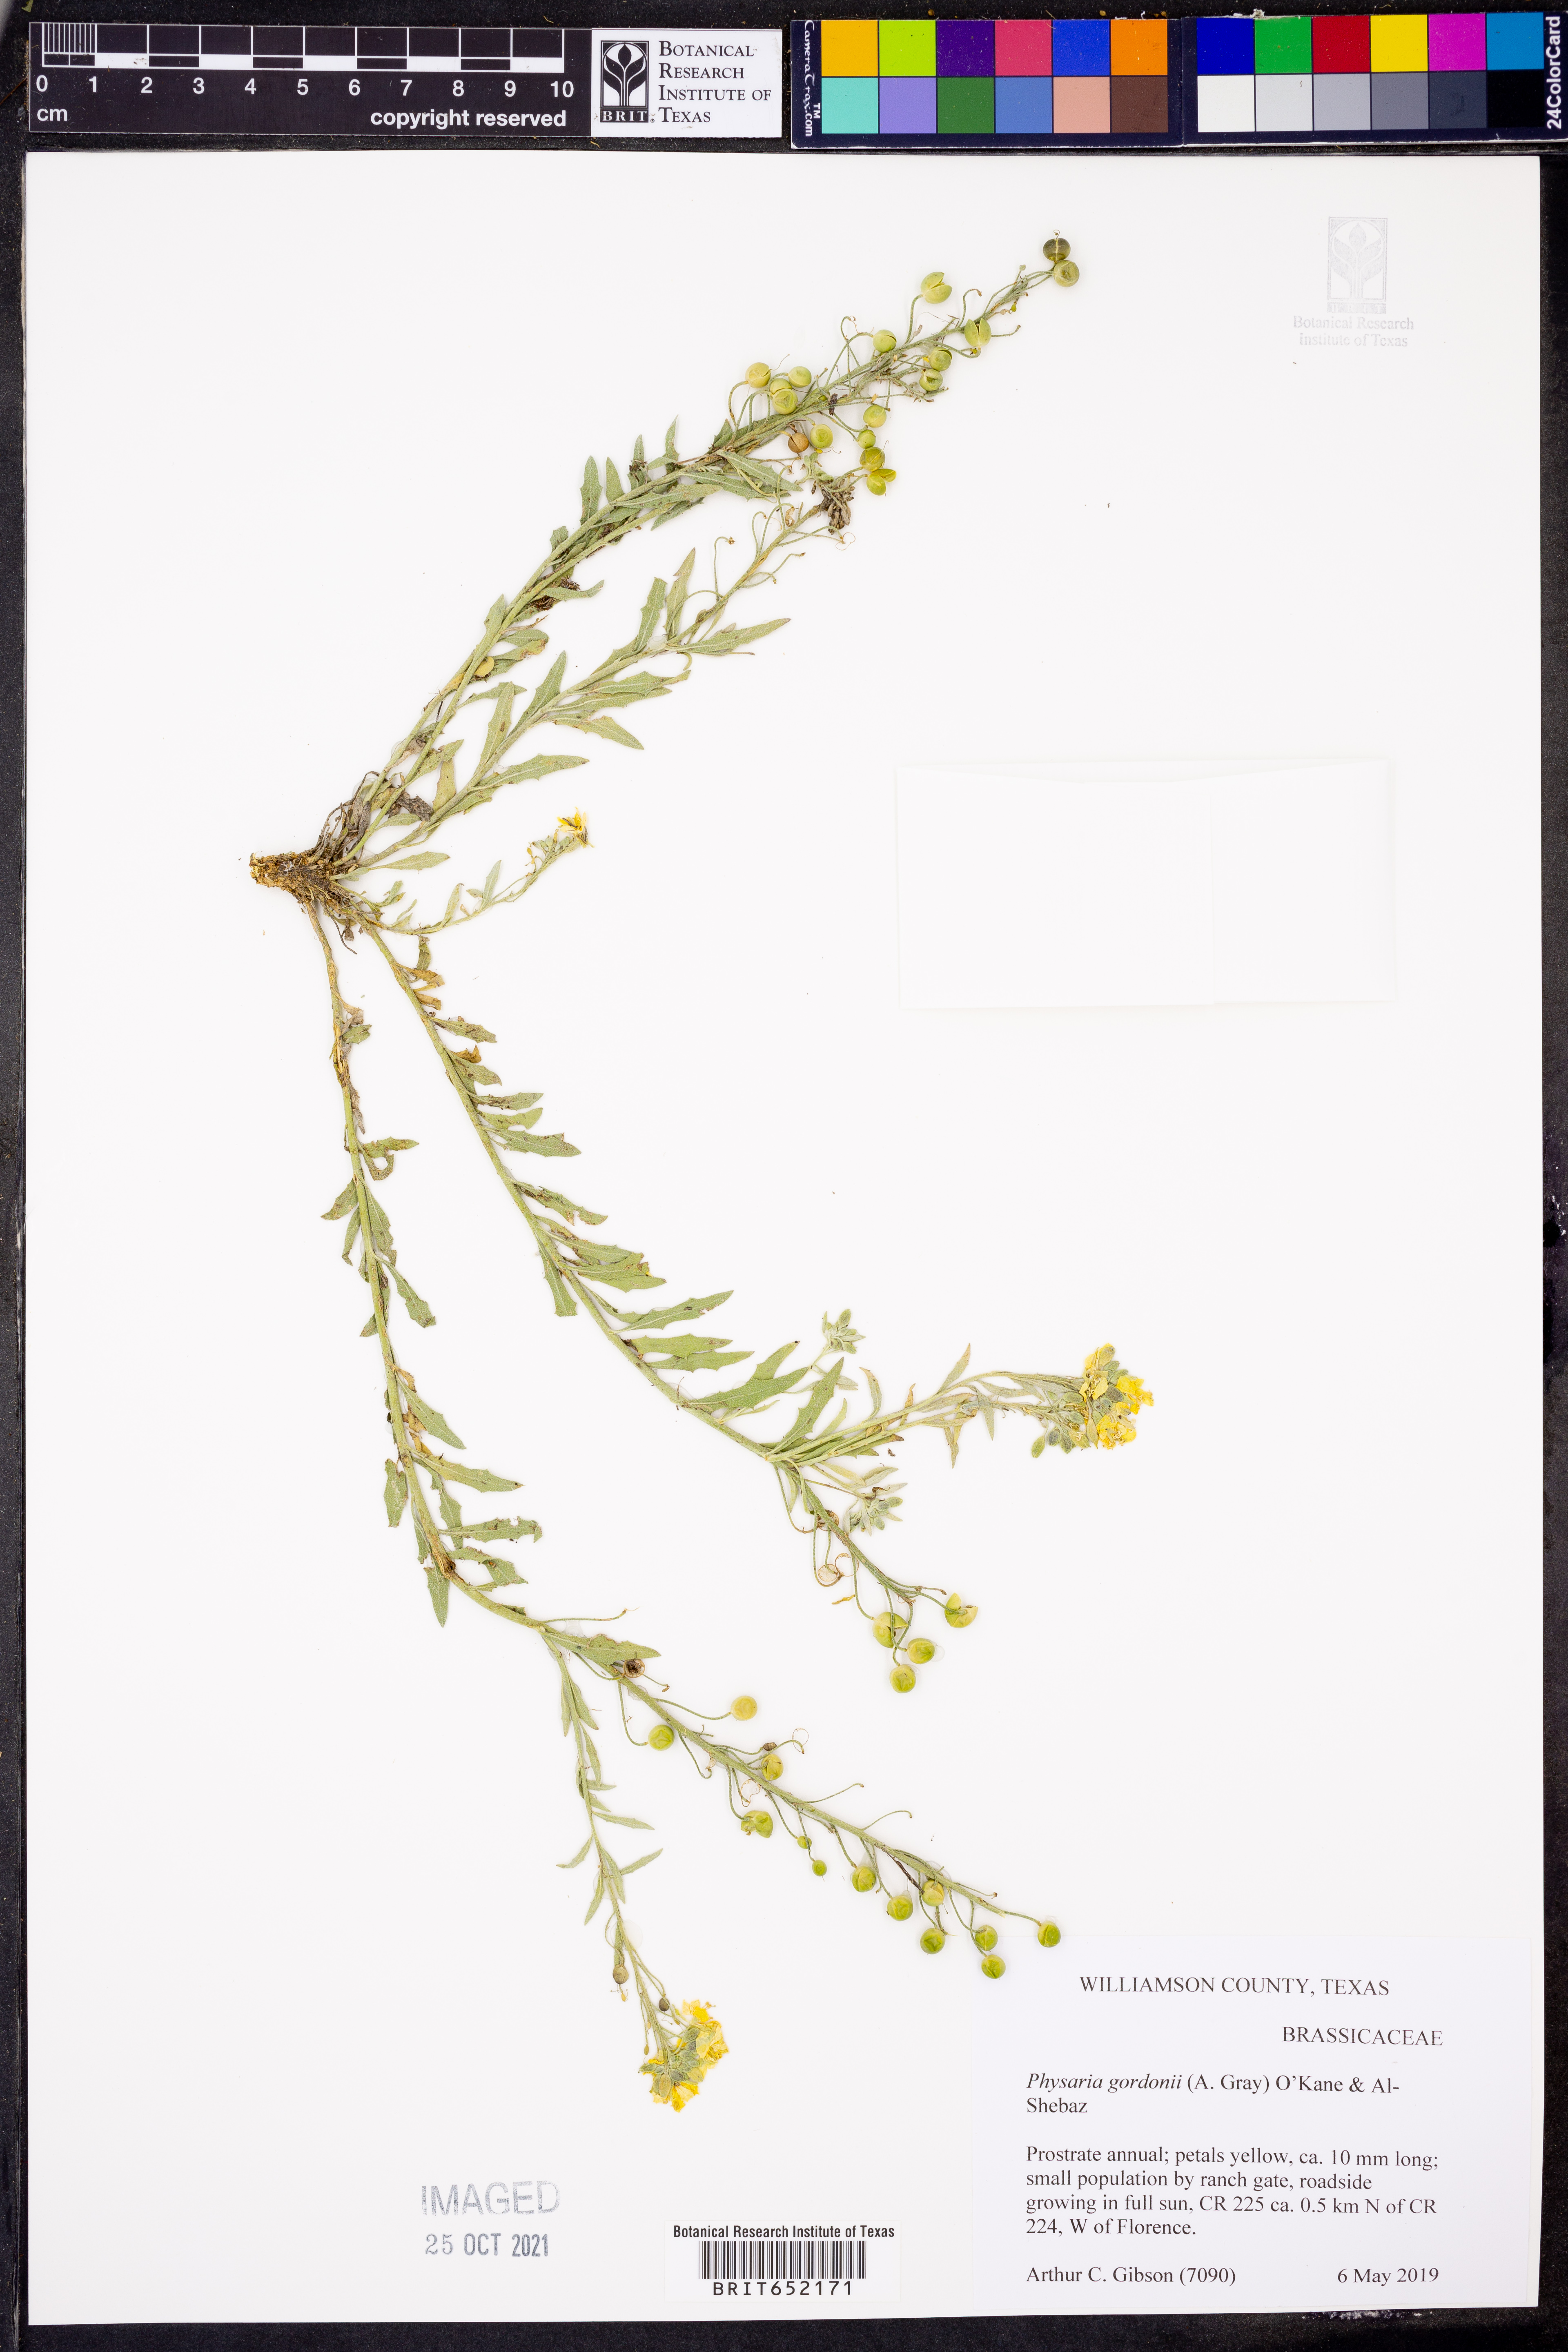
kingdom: Plantae
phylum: Tracheophyta
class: Magnoliopsida
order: Brassicales
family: Brassicaceae
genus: Physaria
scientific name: Physaria gordonii
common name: Gordon's bladderpod
